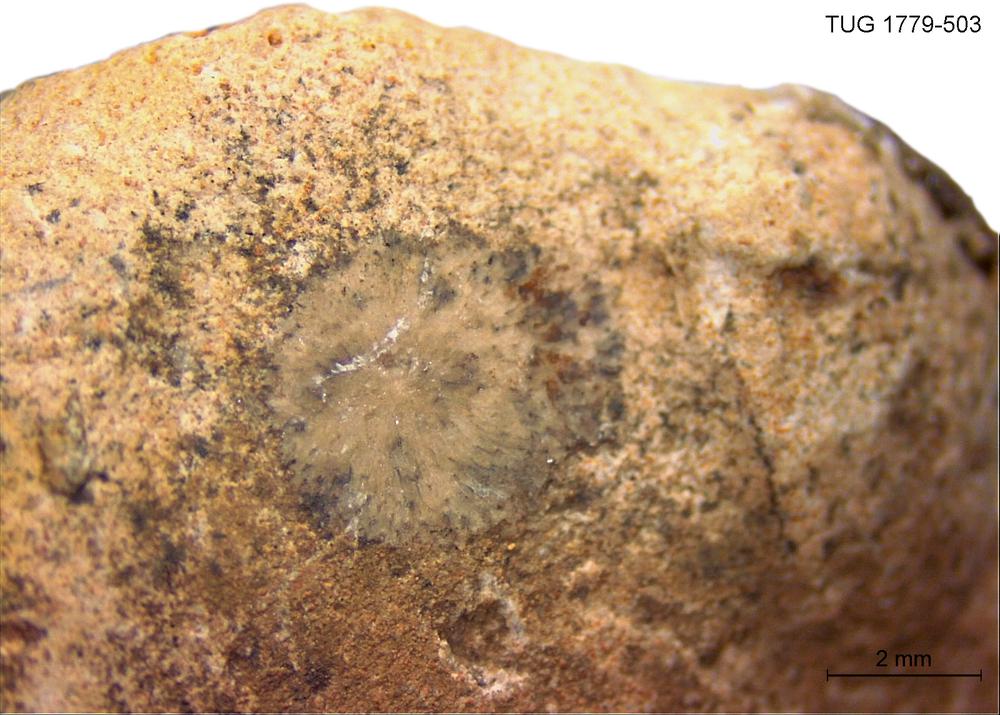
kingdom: Animalia
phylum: Bryozoa
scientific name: Bryozoa
